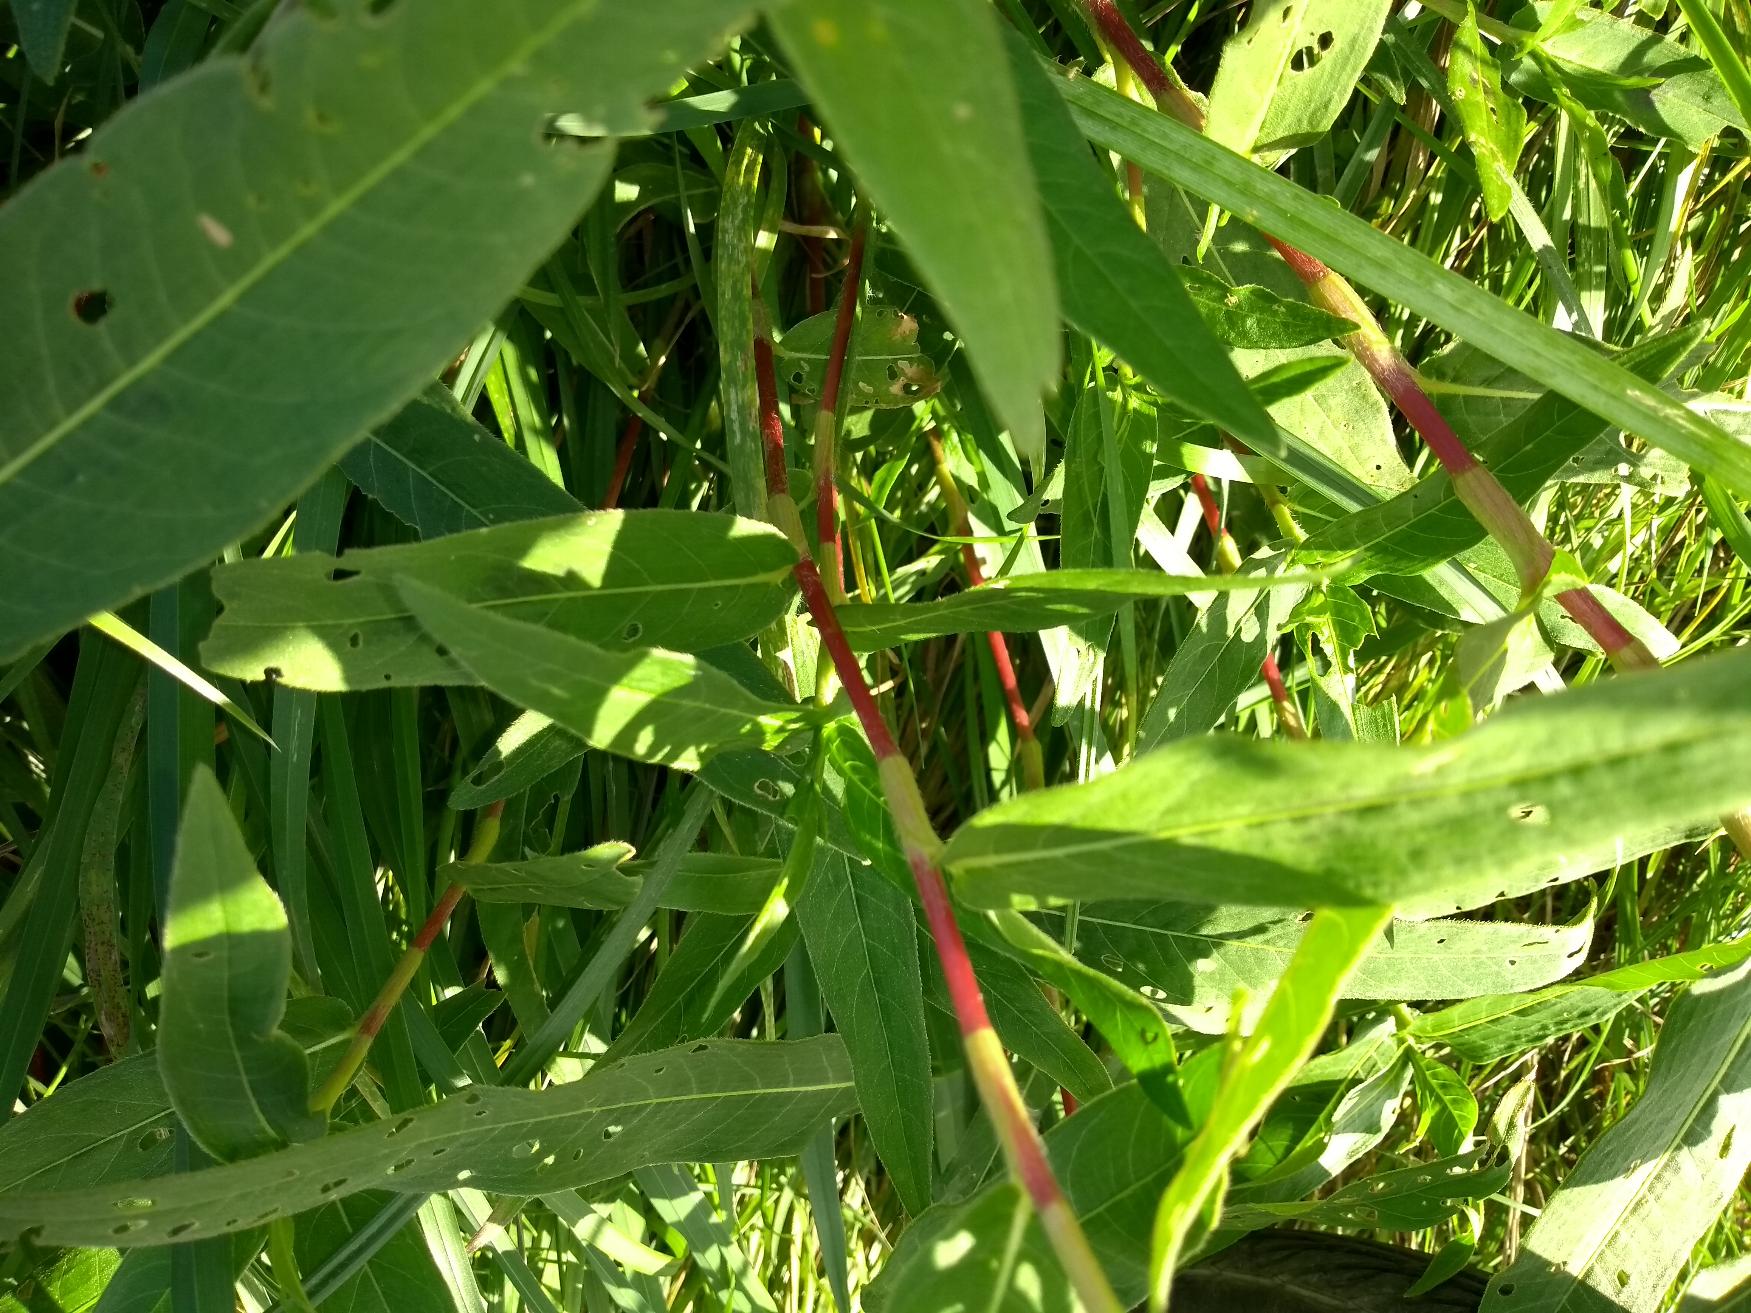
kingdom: Plantae
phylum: Tracheophyta
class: Magnoliopsida
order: Caryophyllales
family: Polygonaceae
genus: Reynoutria
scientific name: Reynoutria japonica
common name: Japan-pileurt
